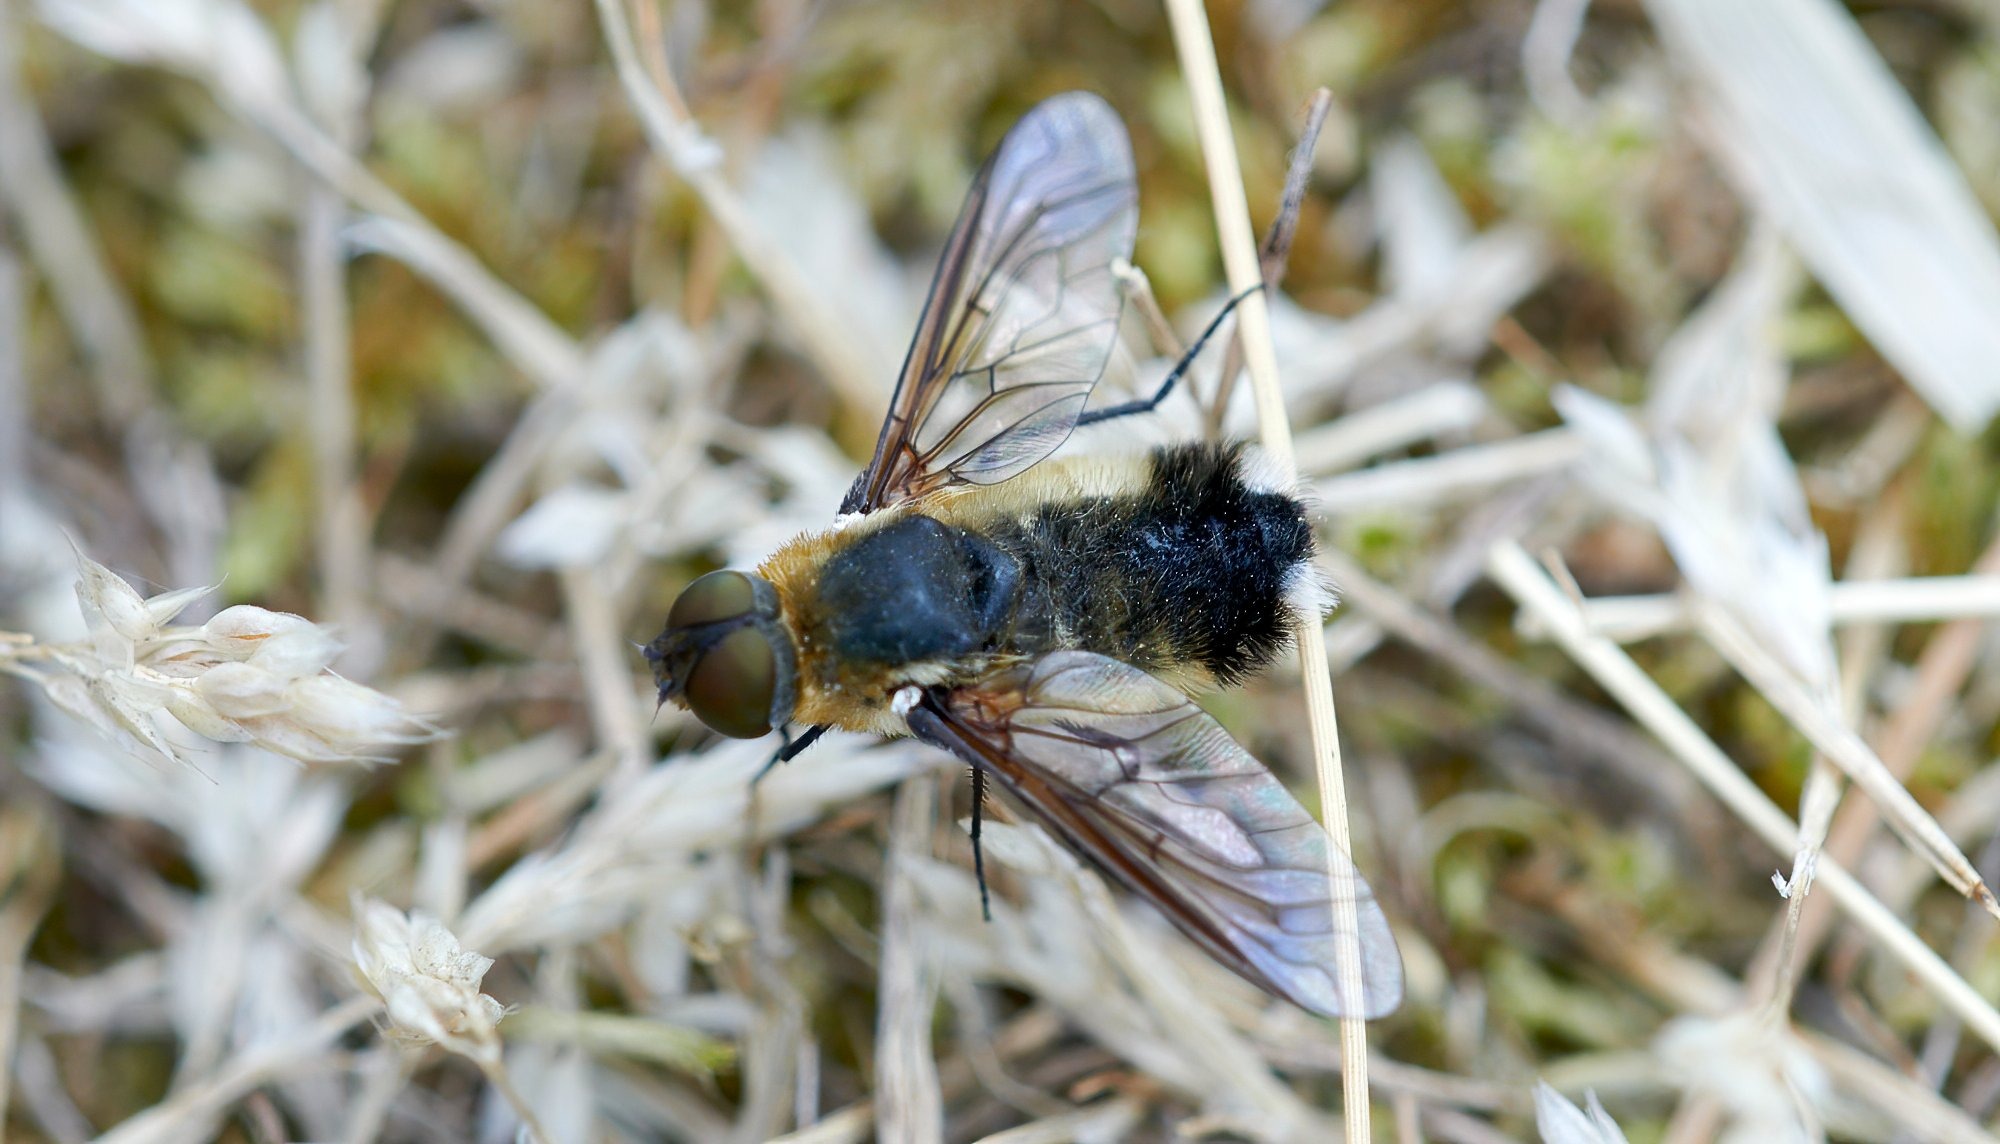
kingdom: Animalia
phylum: Arthropoda
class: Insecta
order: Diptera
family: Bombyliidae
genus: Villa
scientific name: Villa modesta
